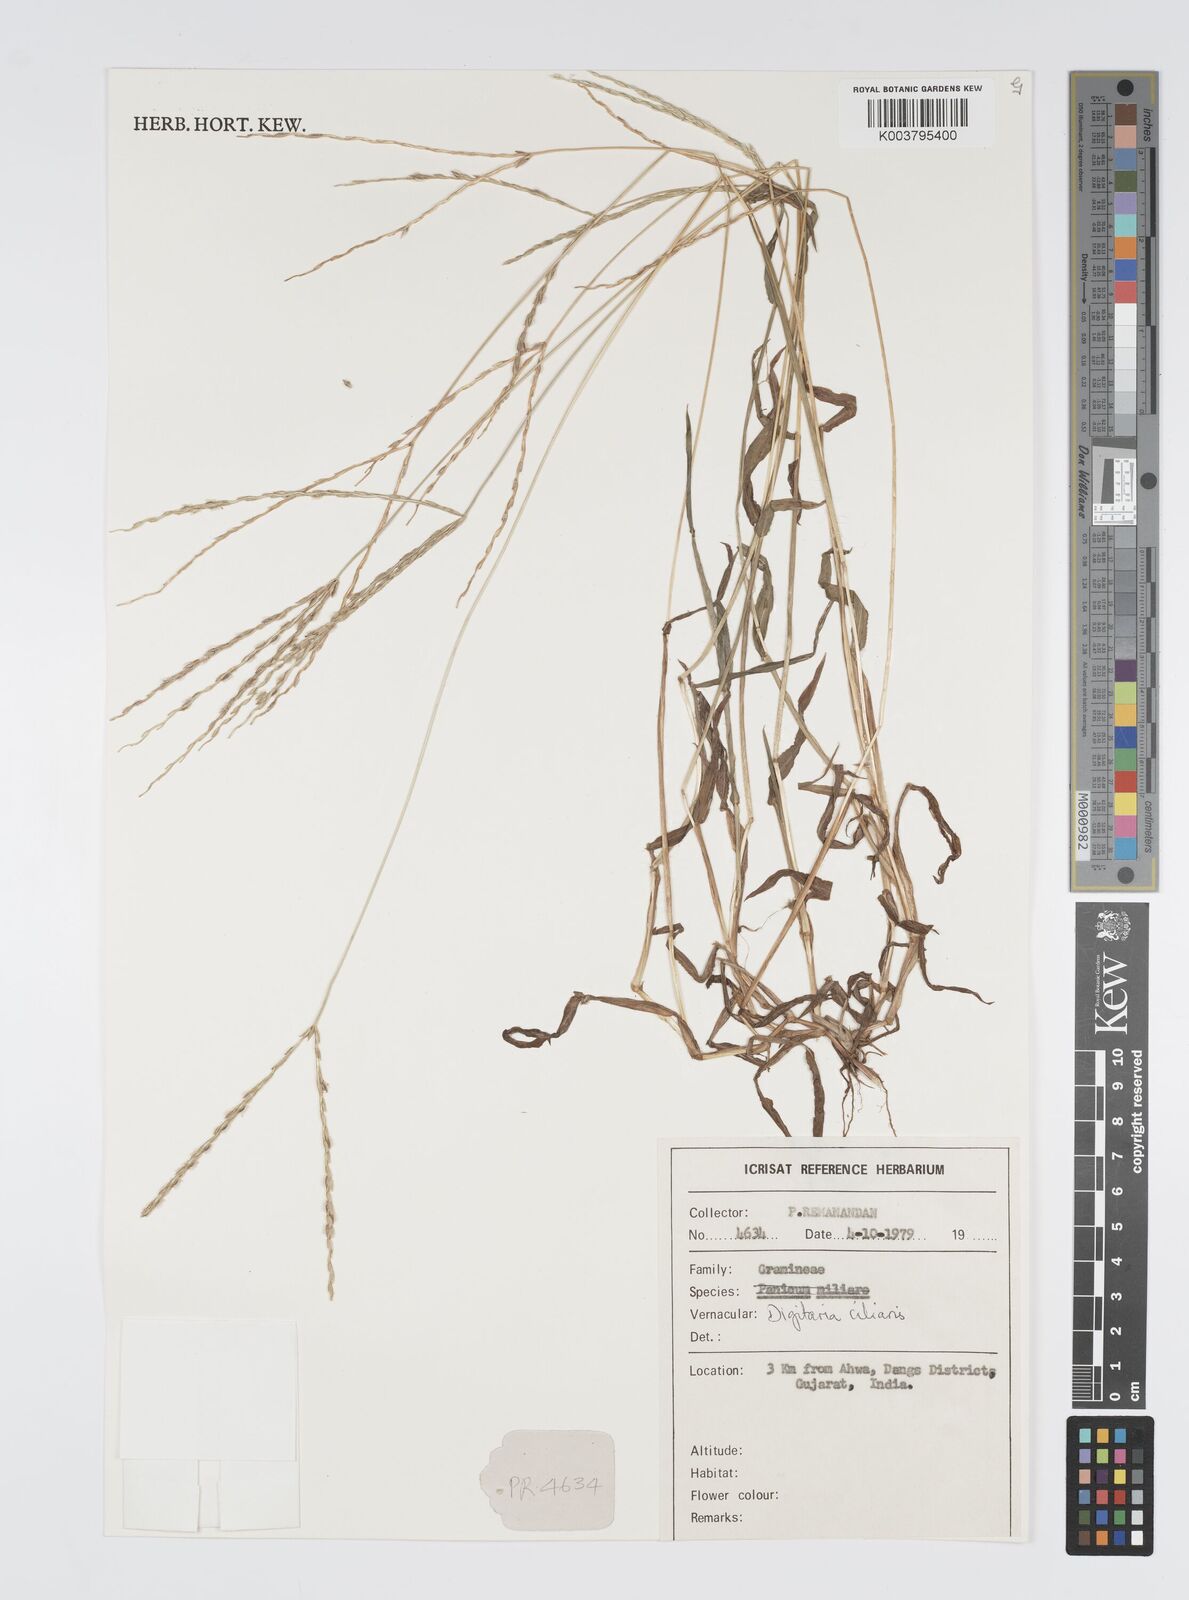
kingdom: Plantae
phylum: Tracheophyta
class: Liliopsida
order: Poales
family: Poaceae
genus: Digitaria
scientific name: Digitaria ciliaris
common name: Tropical finger-grass
